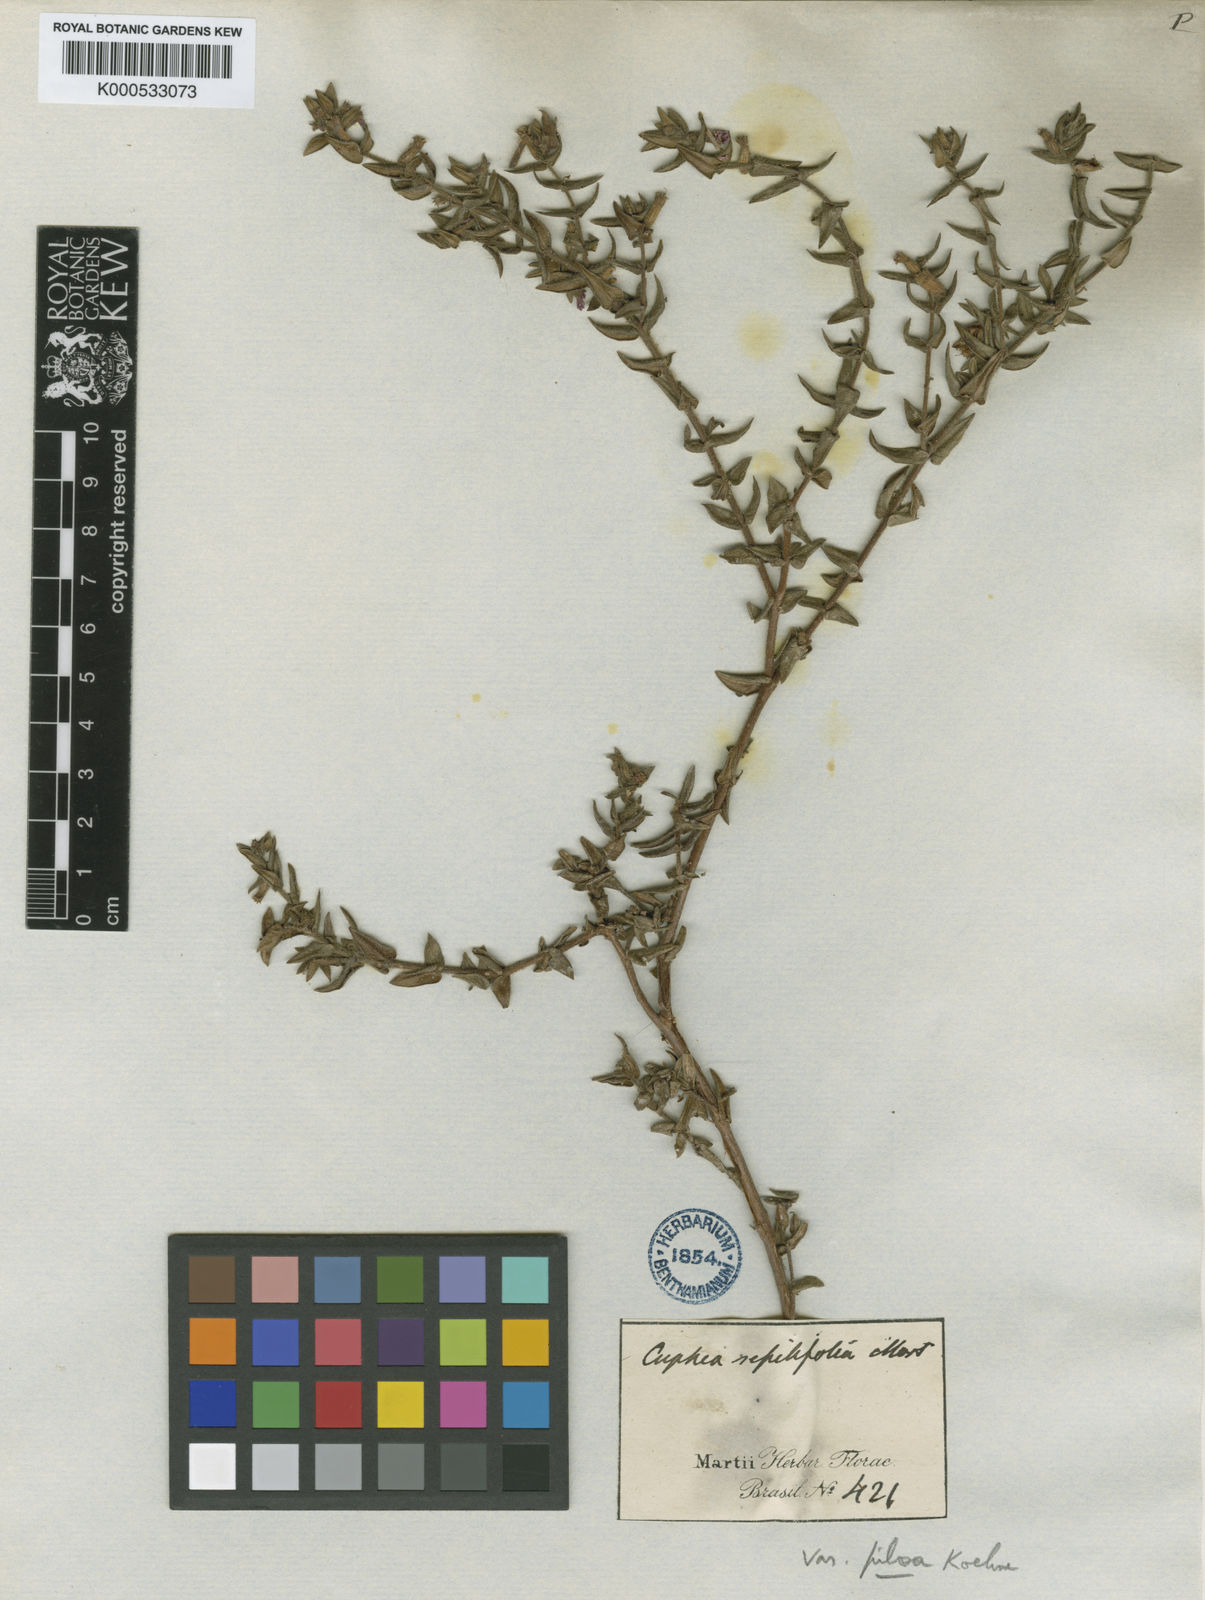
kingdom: Plantae
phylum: Tracheophyta
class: Magnoliopsida
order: Myrtales
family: Lythraceae
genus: Cuphea
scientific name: Cuphea sessilifolia
